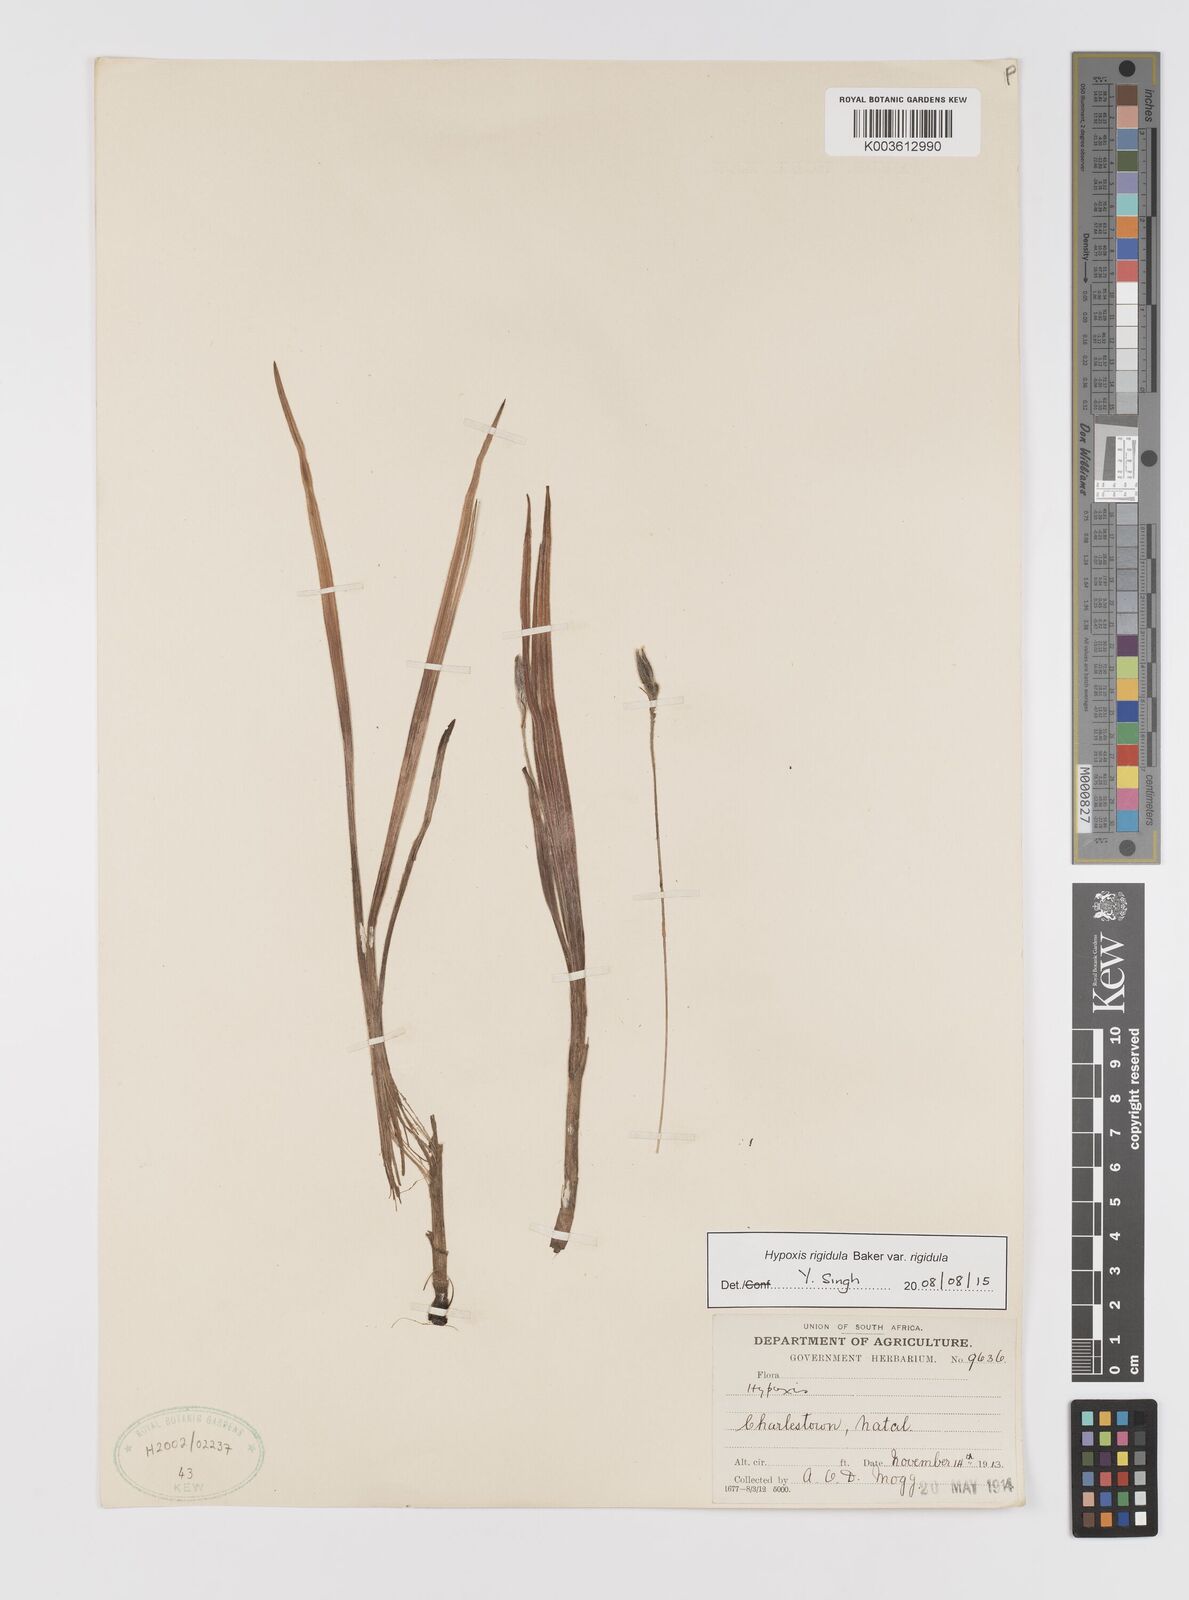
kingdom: Plantae
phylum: Tracheophyta
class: Liliopsida
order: Asparagales
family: Hypoxidaceae
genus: Hypoxis
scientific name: Hypoxis rigidula
